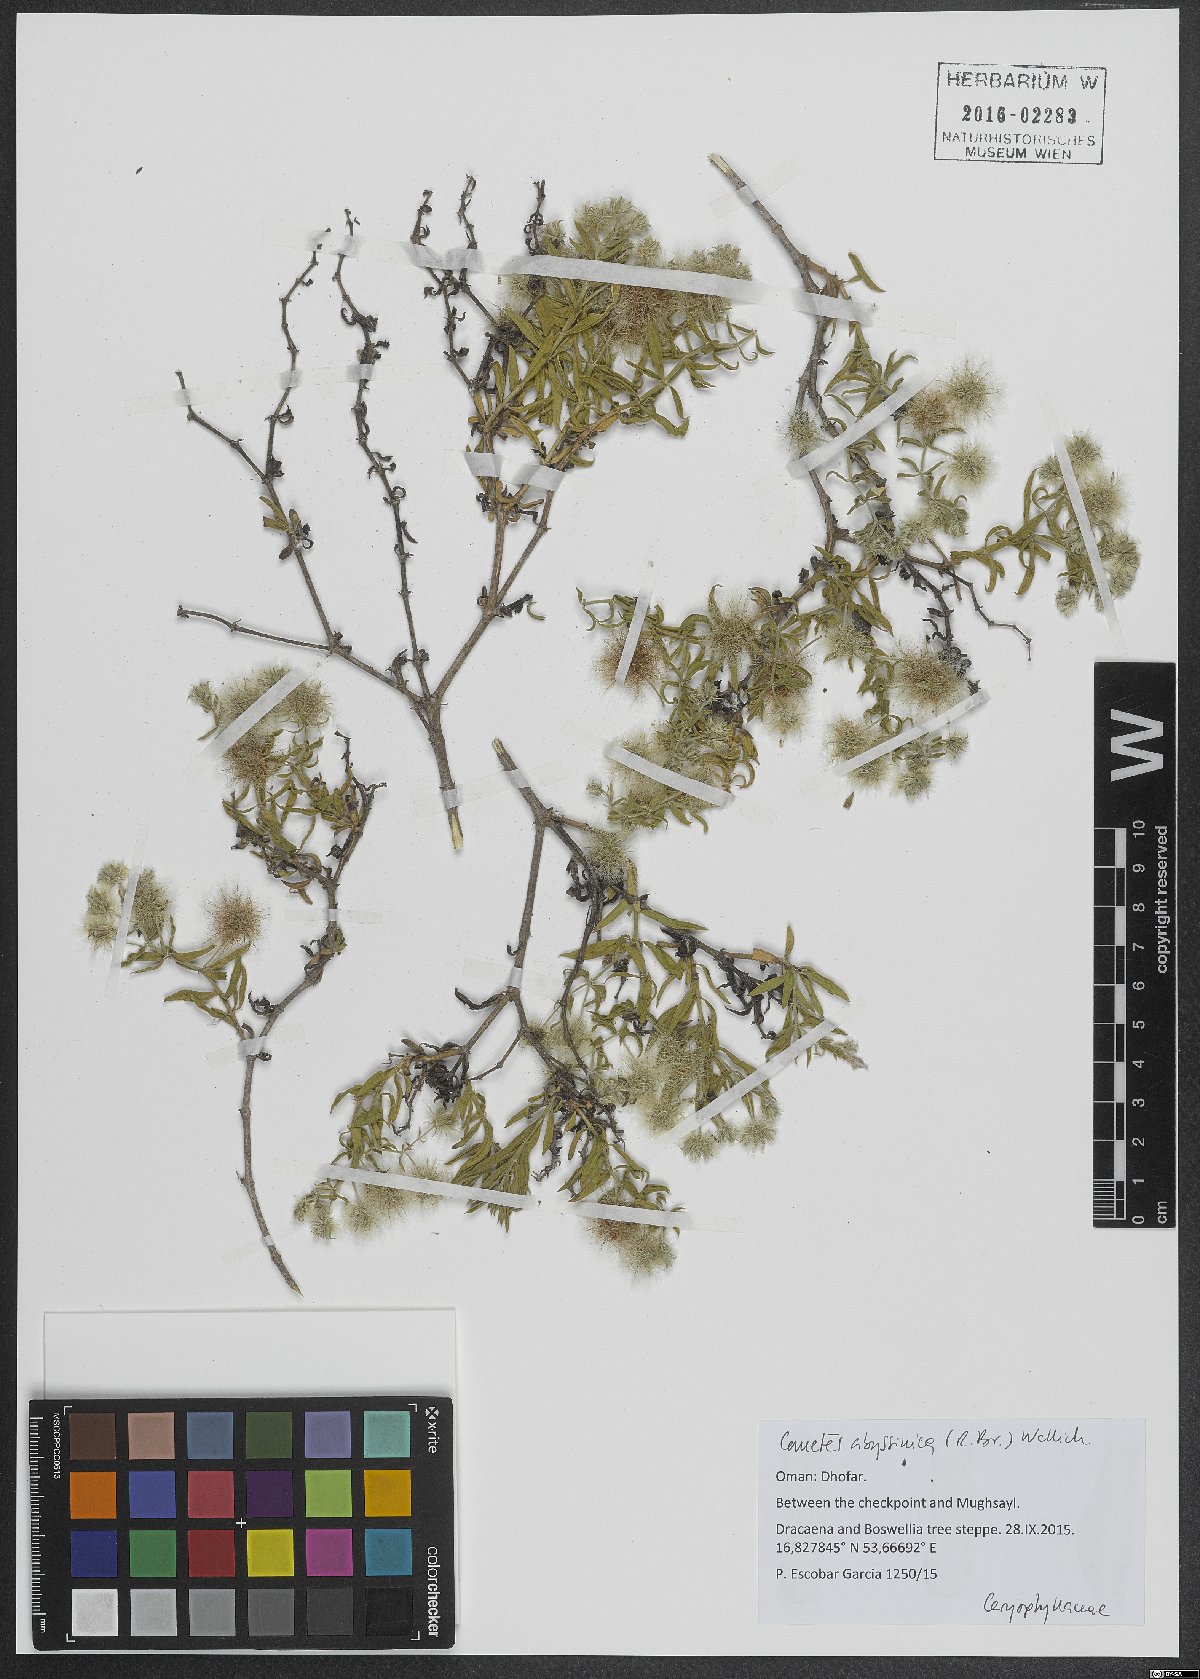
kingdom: Plantae
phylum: Tracheophyta
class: Magnoliopsida
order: Caryophyllales
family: Caryophyllaceae
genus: Cometes
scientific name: Cometes abyssinica
